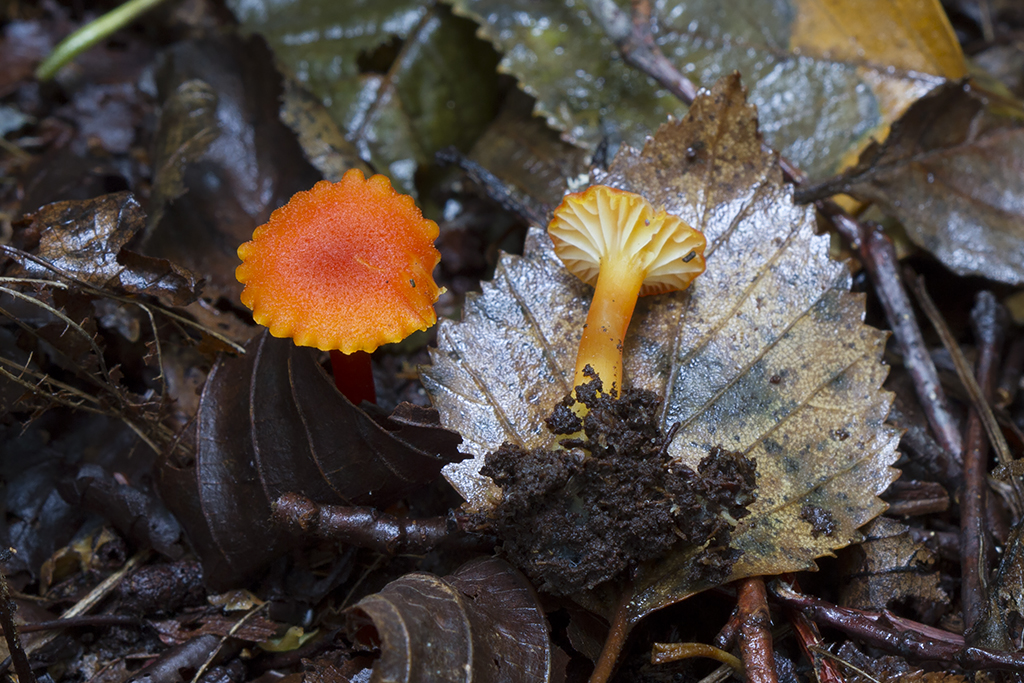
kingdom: Fungi
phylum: Basidiomycota
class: Agaricomycetes
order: Agaricales
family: Hygrophoraceae
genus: Hygrocybe
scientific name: Hygrocybe cantharellus
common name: kantarel-vokshat
